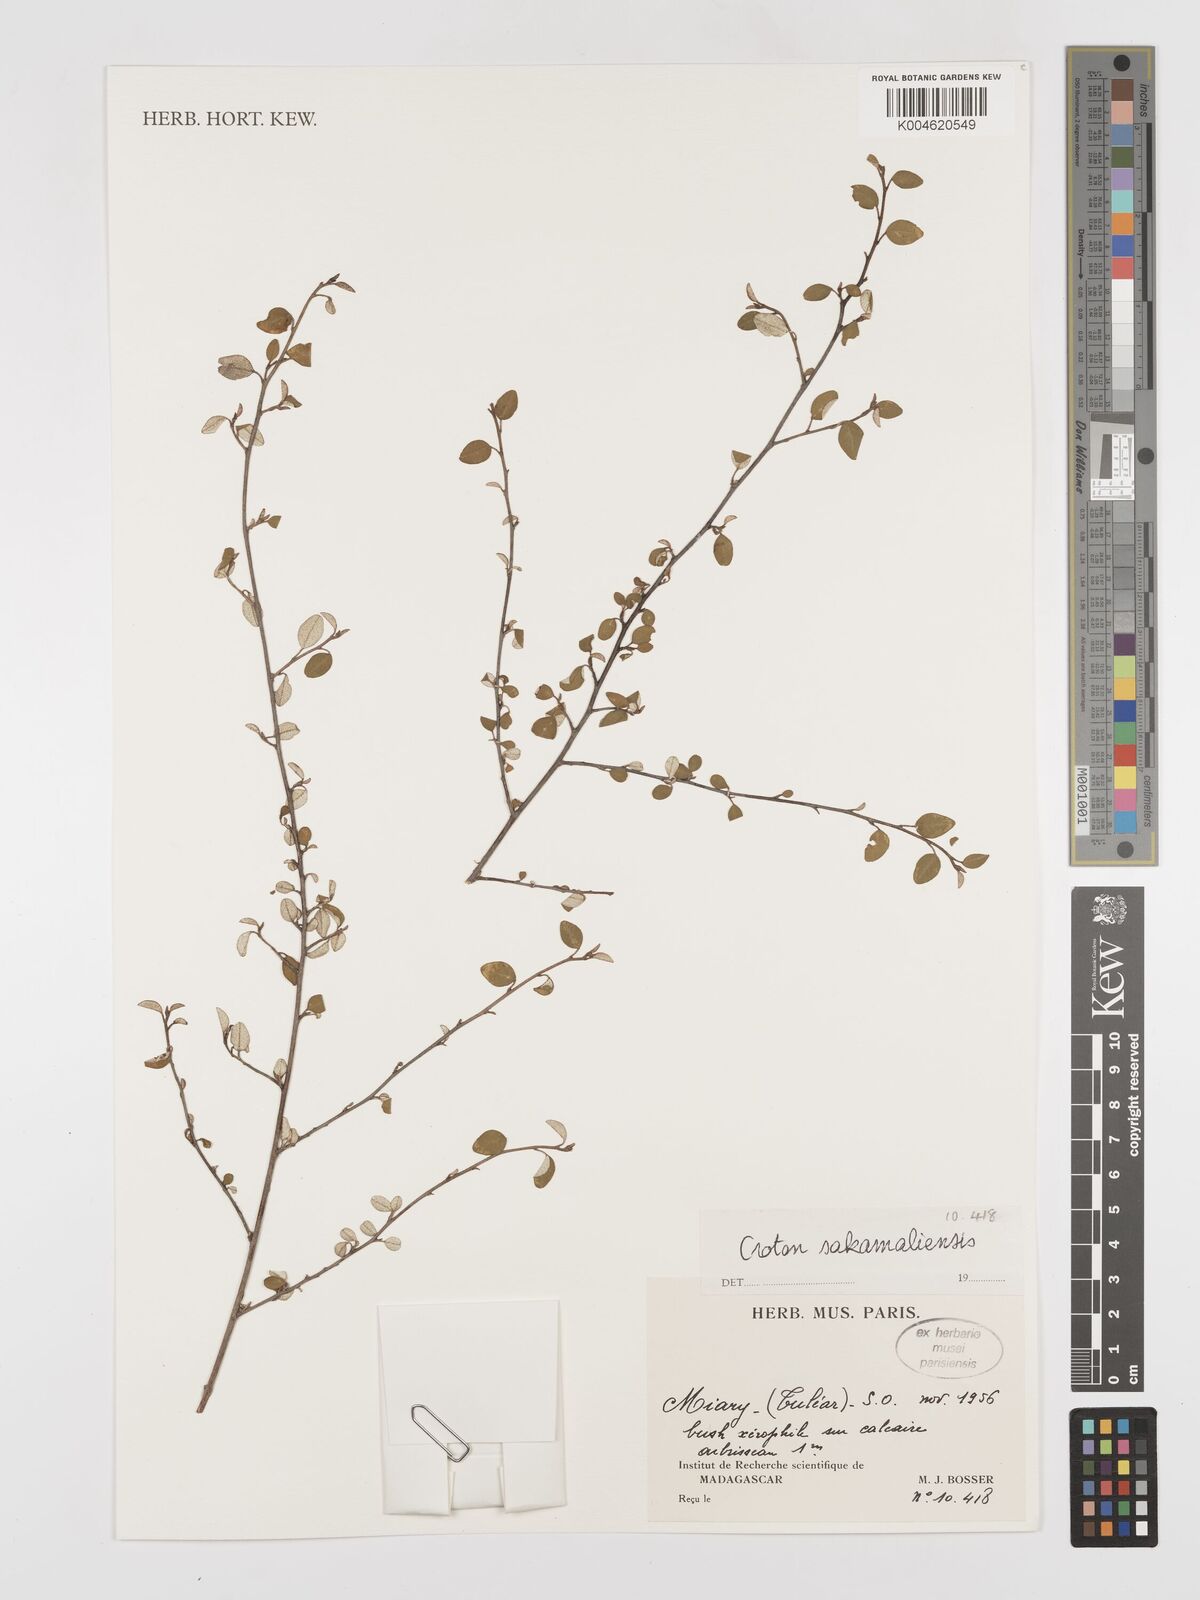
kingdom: Plantae
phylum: Tracheophyta
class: Magnoliopsida
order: Malpighiales
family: Euphorbiaceae
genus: Croton
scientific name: Croton sakamaliensis
